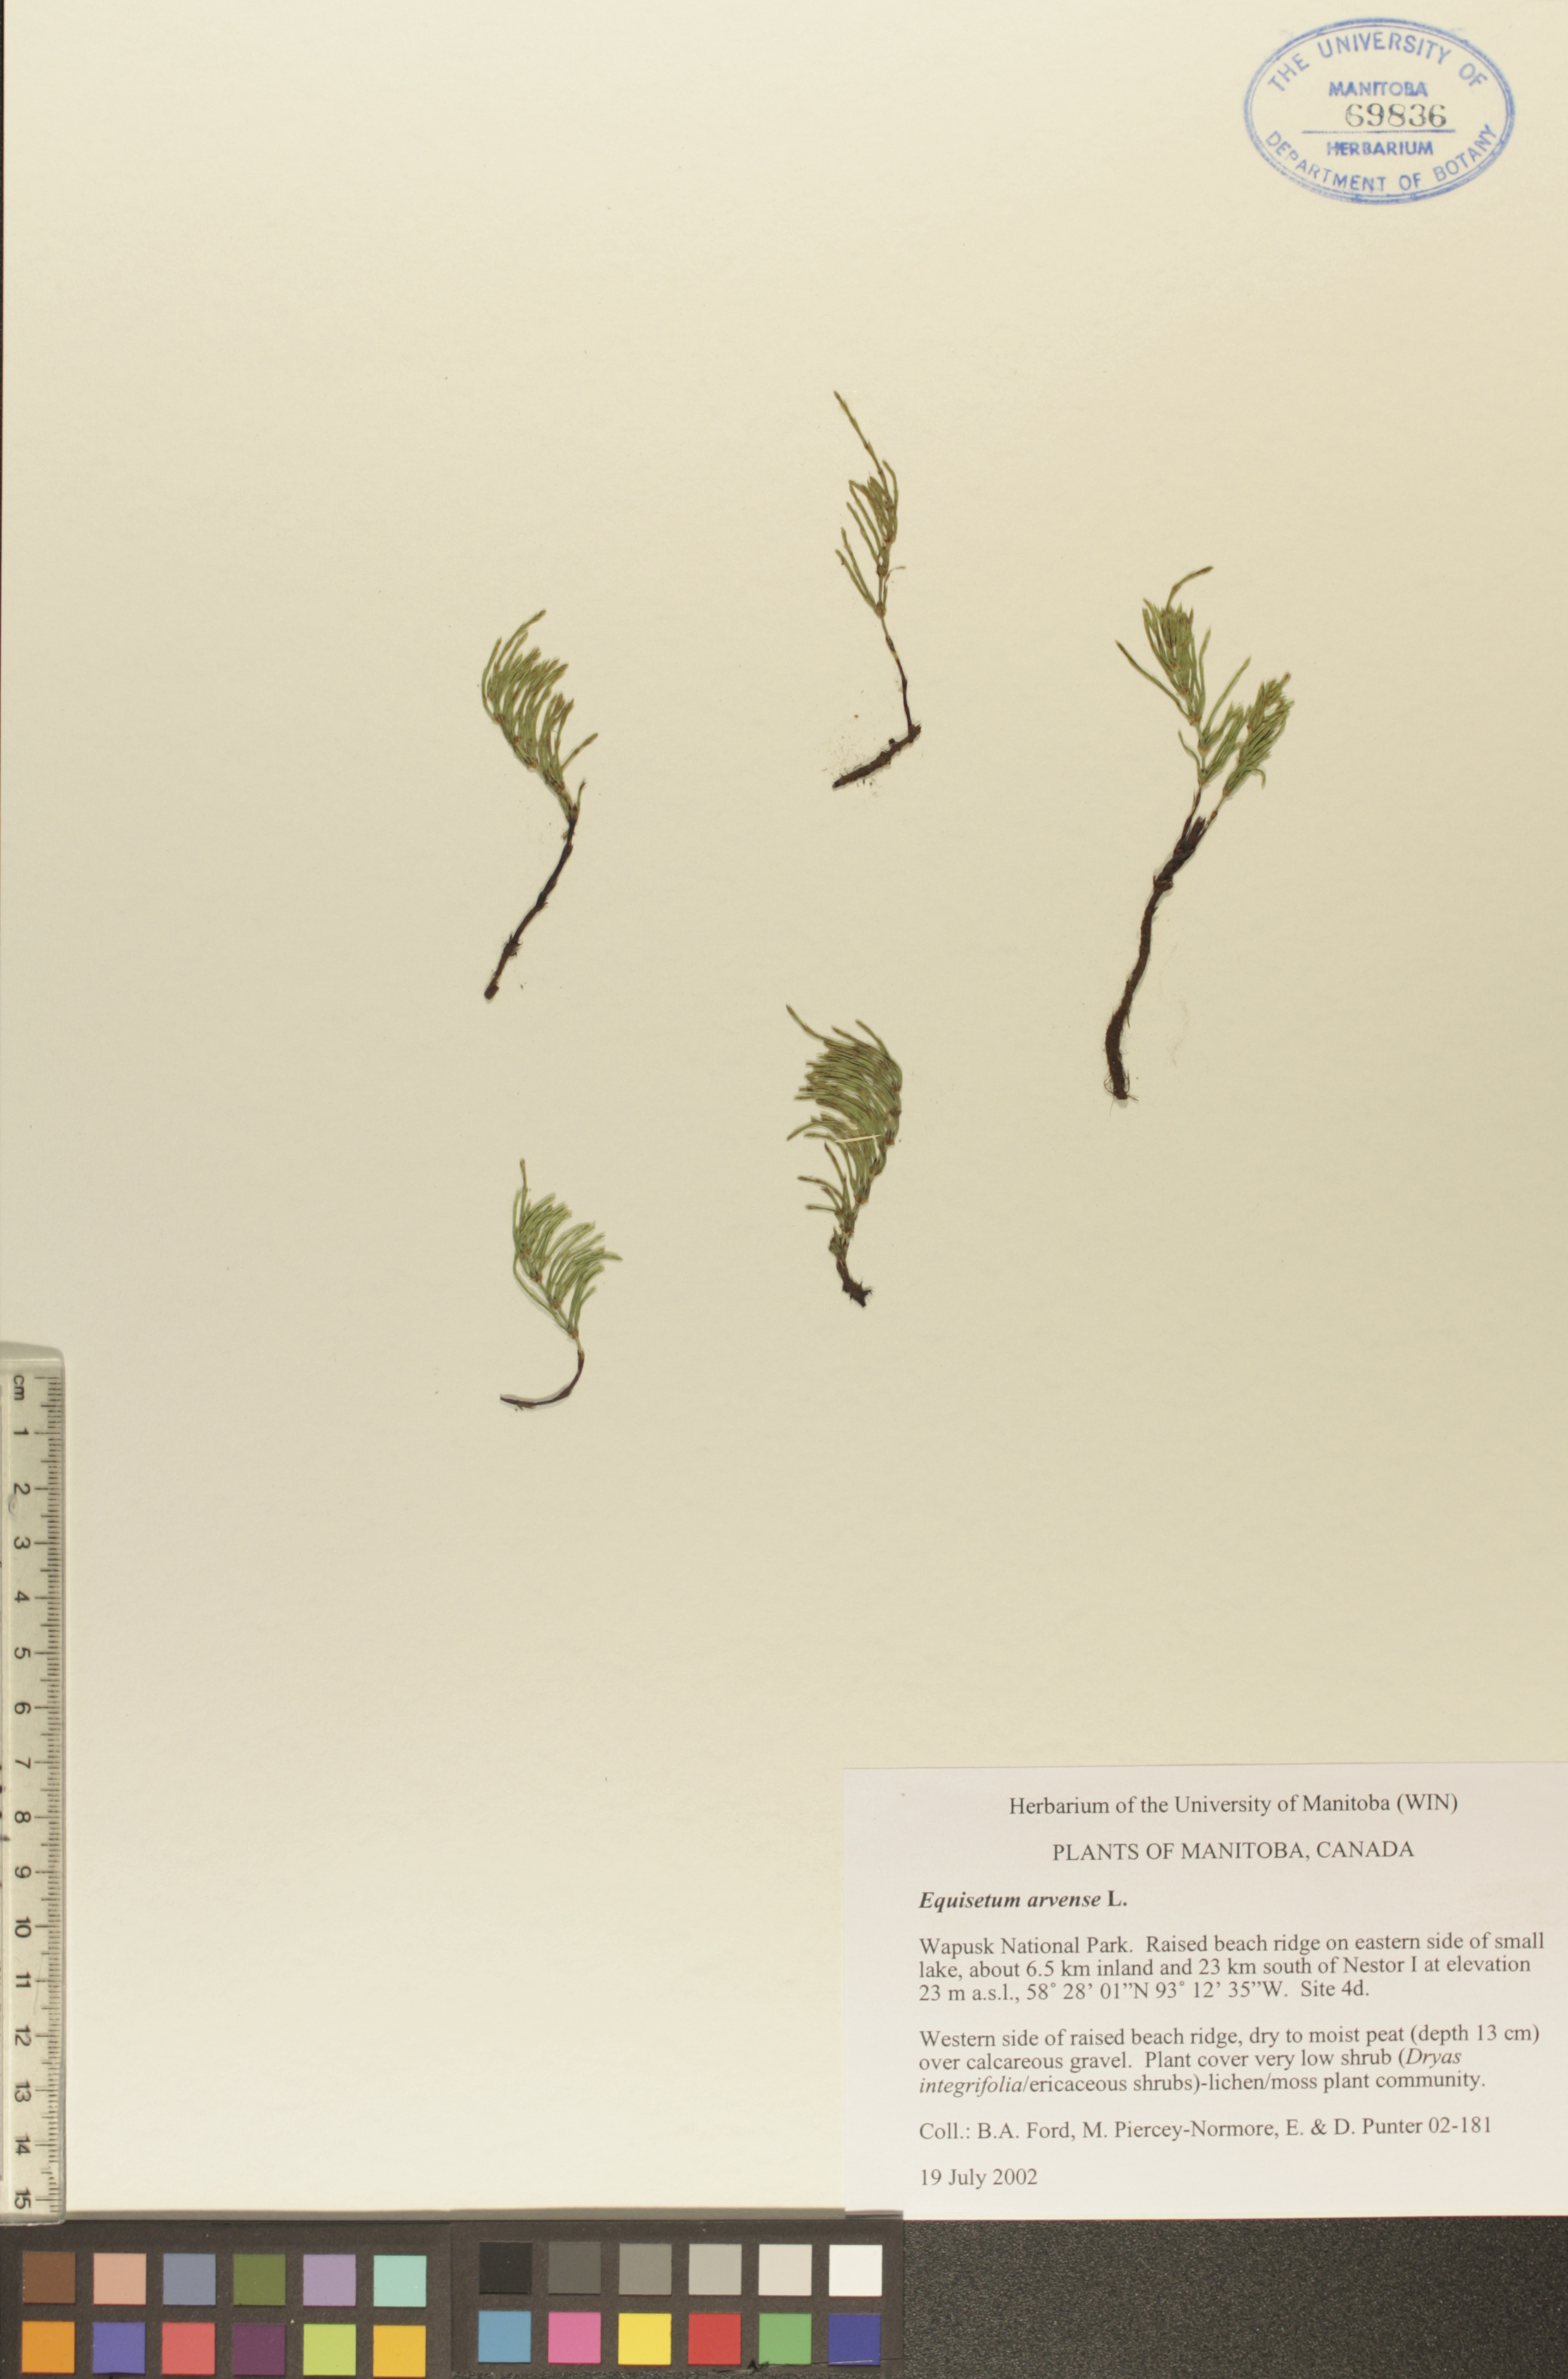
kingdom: Plantae
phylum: Tracheophyta
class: Polypodiopsida
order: Equisetales
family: Equisetaceae
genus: Equisetum
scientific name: Equisetum arvense
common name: Field horsetail
